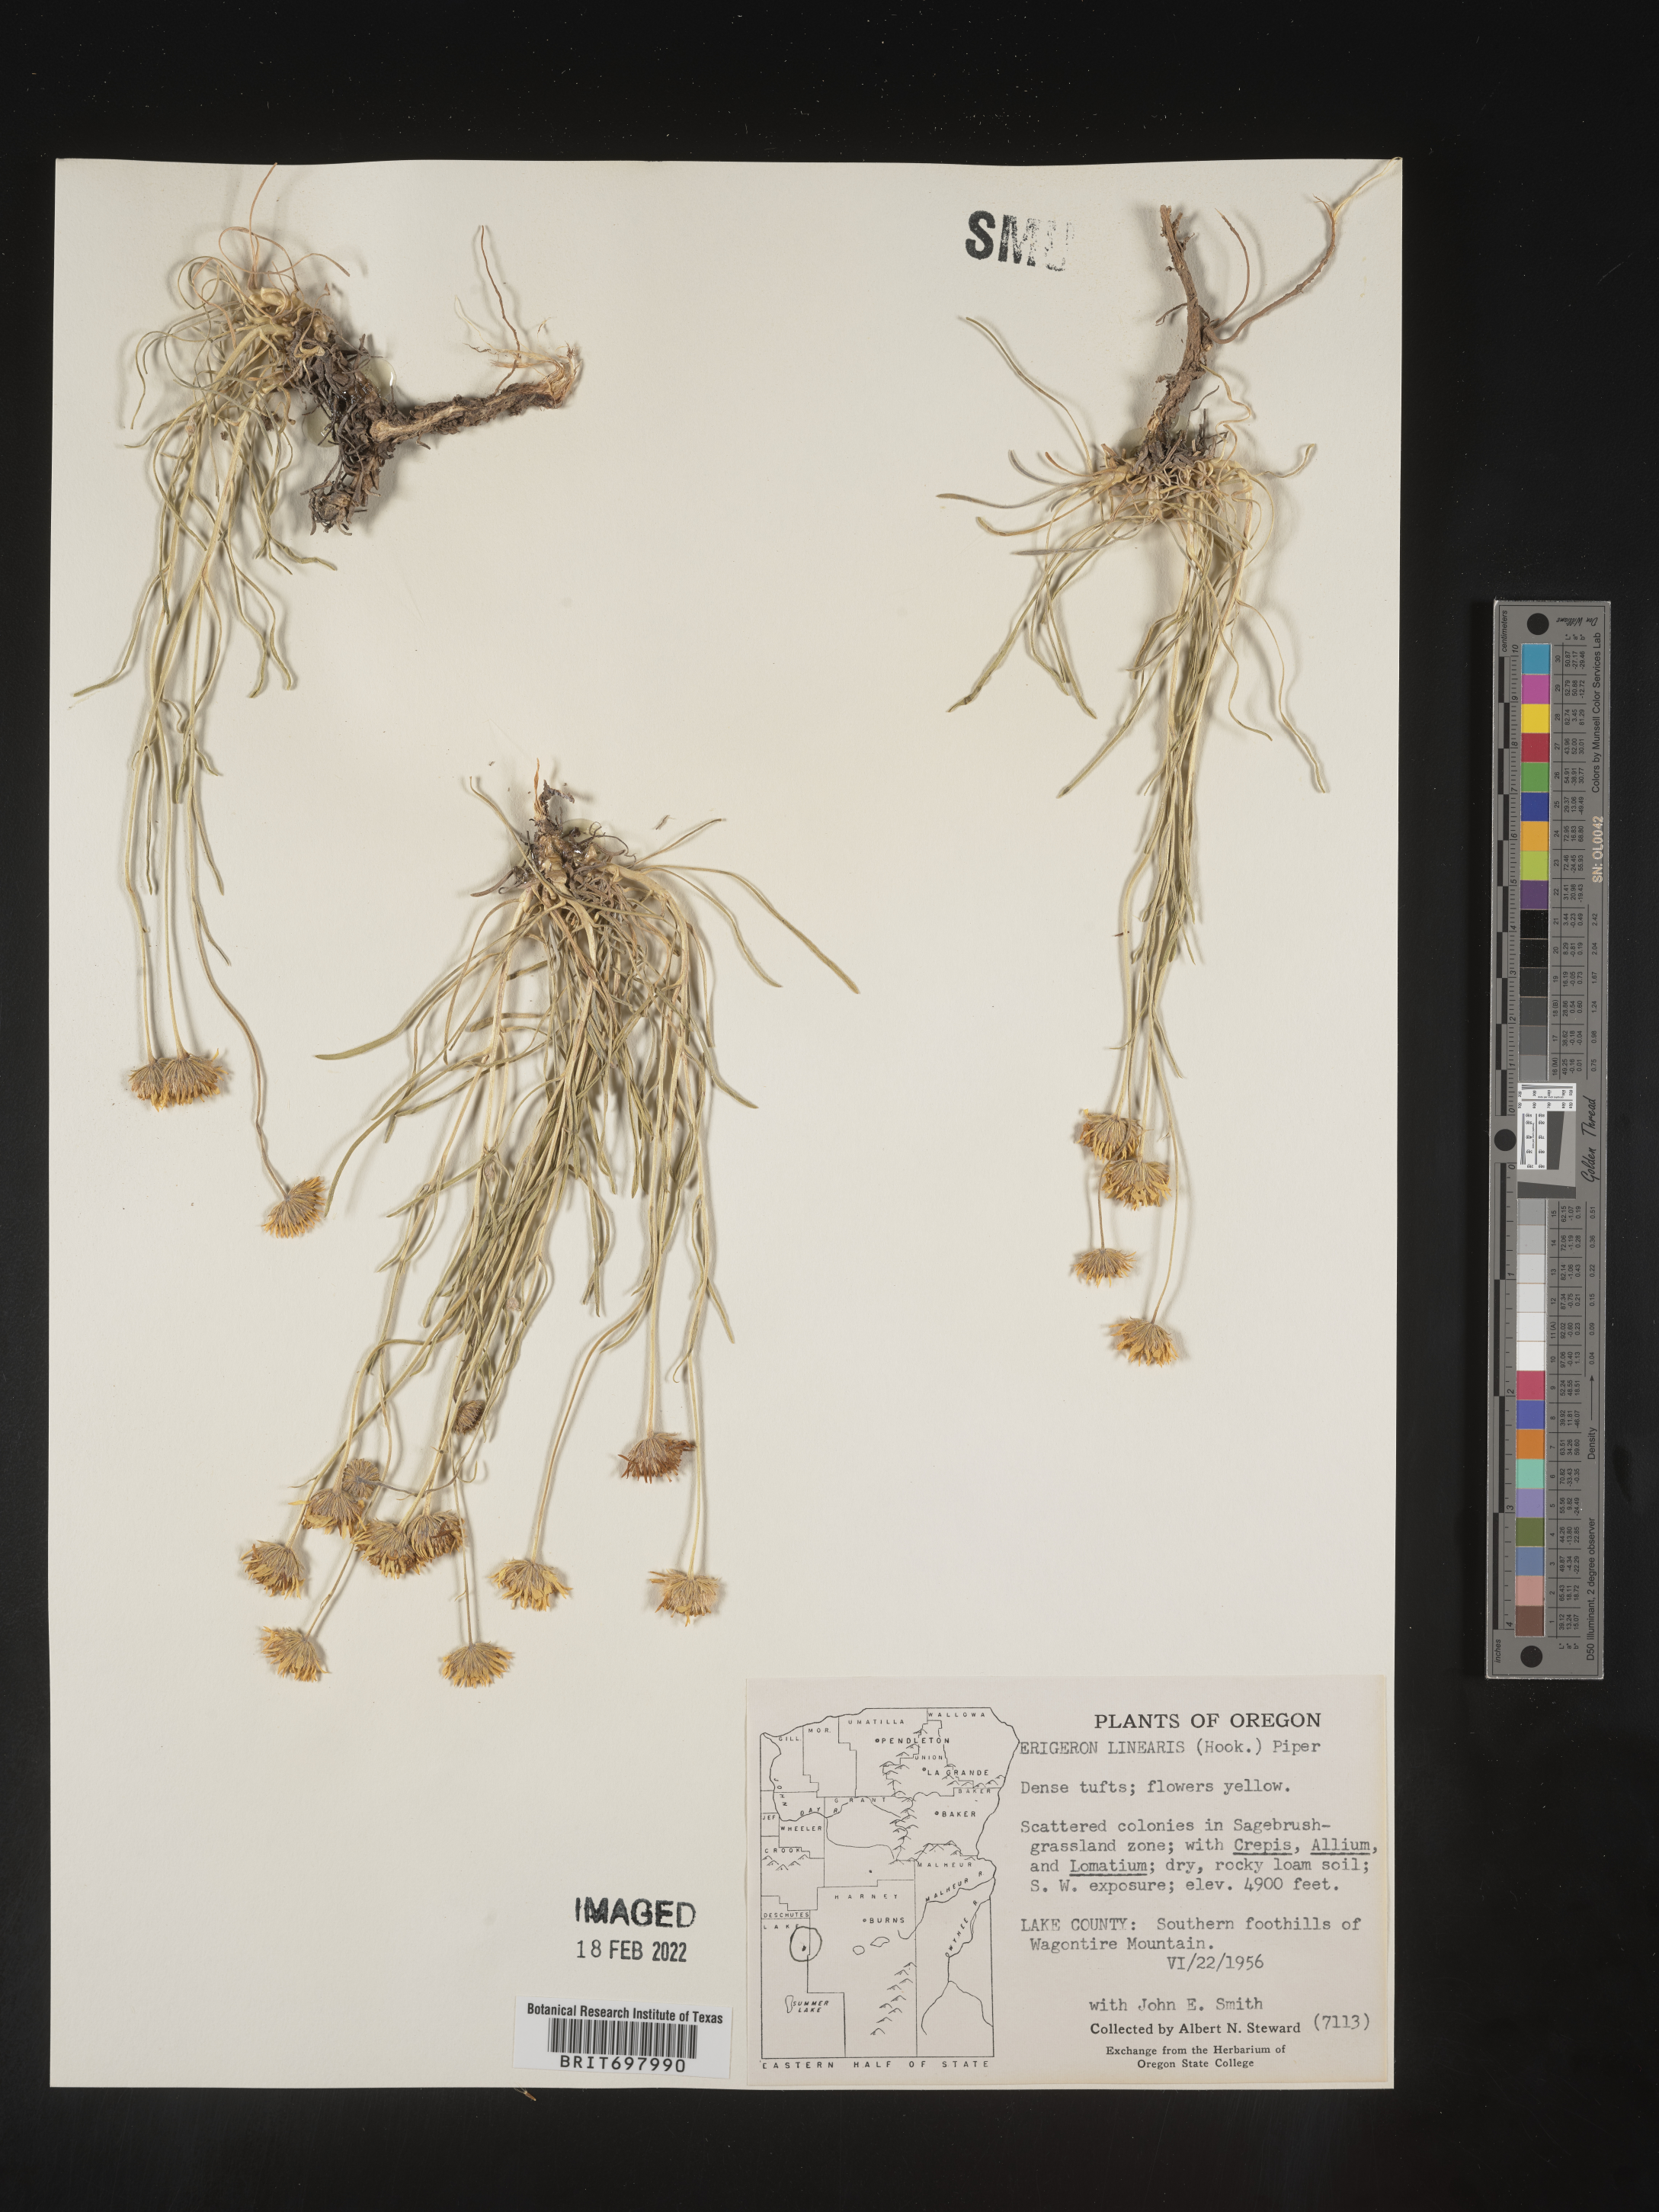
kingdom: Plantae
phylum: Tracheophyta
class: Magnoliopsida
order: Asterales
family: Asteraceae
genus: Erigeron
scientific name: Erigeron linearis
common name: Desert yellow fleabane
